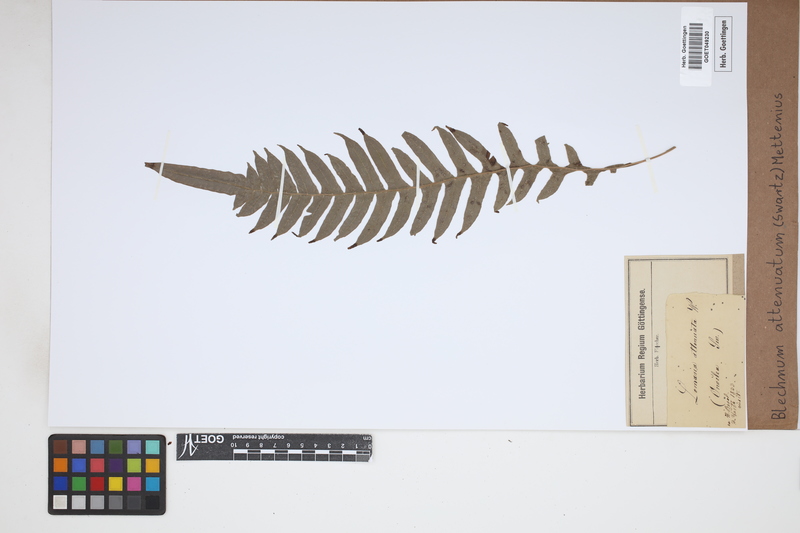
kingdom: Plantae
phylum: Tracheophyta
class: Polypodiopsida
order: Polypodiales
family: Blechnaceae
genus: Lomaridium
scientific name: Lomaridium attenuatum
